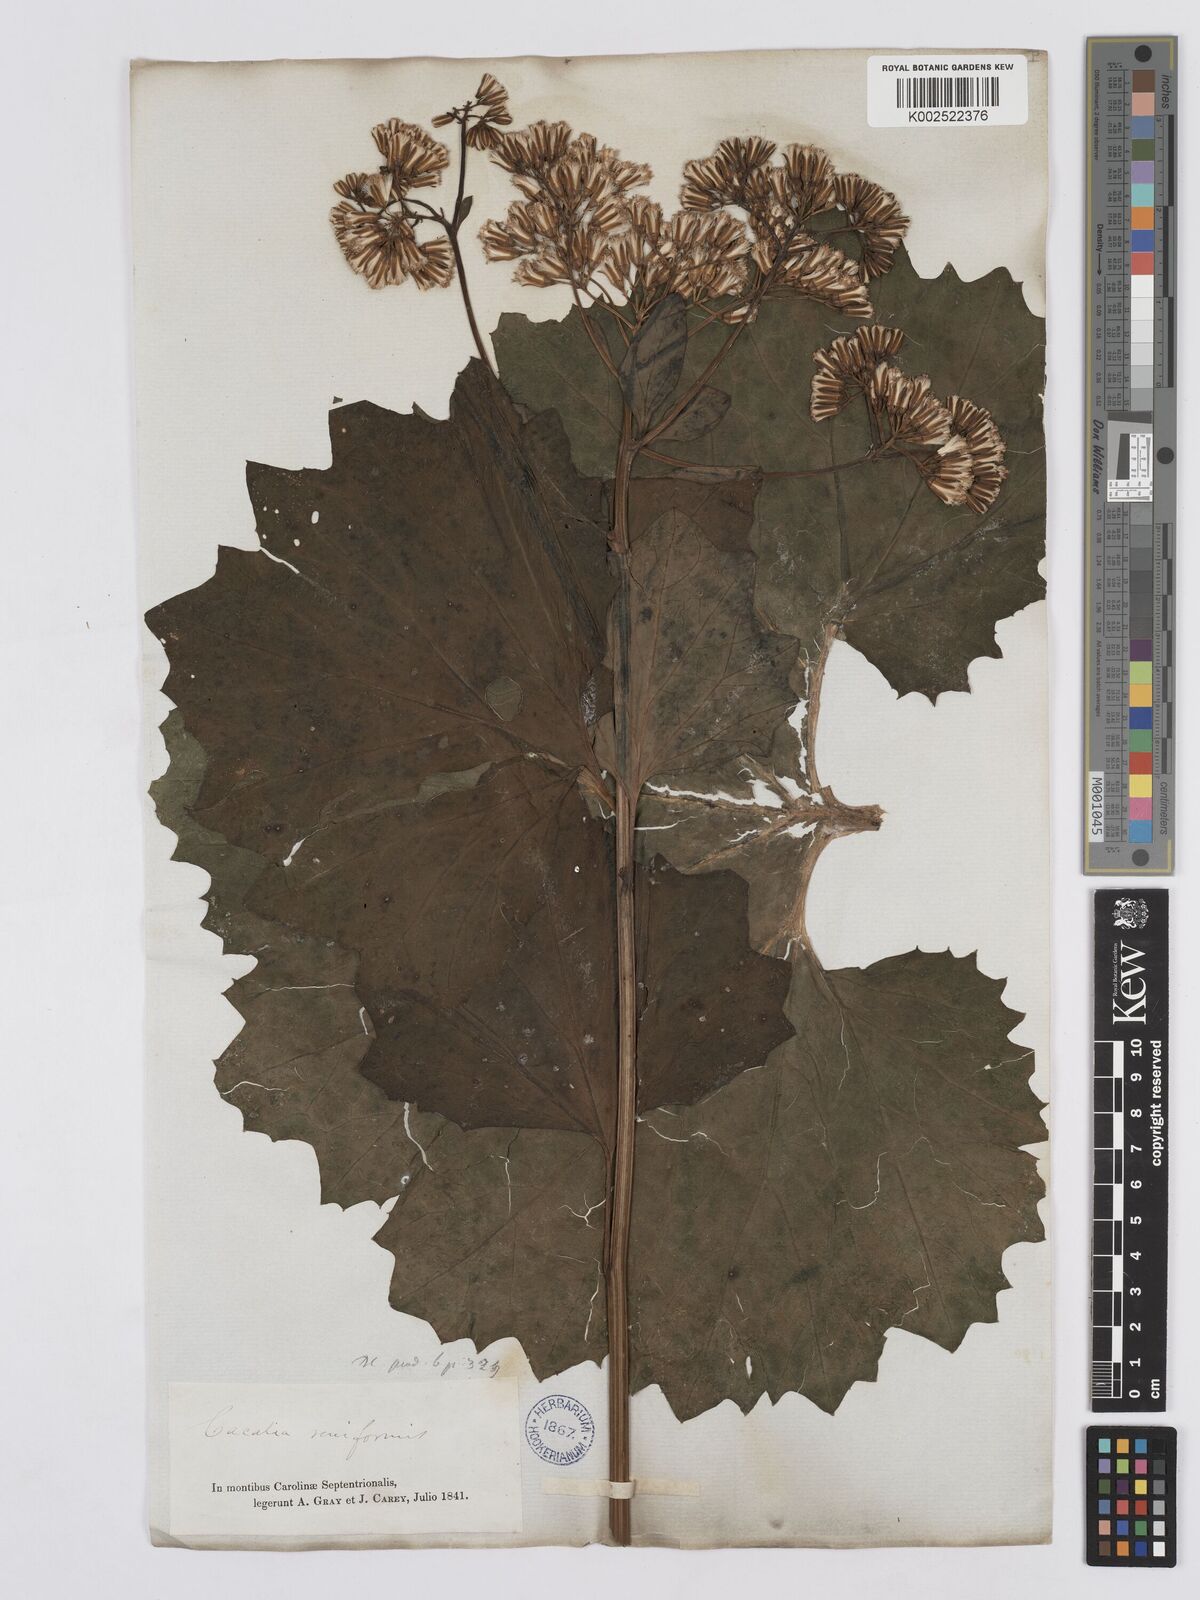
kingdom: Plantae
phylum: Tracheophyta
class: Magnoliopsida
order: Asterales
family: Asteraceae
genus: Arnoglossum
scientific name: Arnoglossum reniforme
